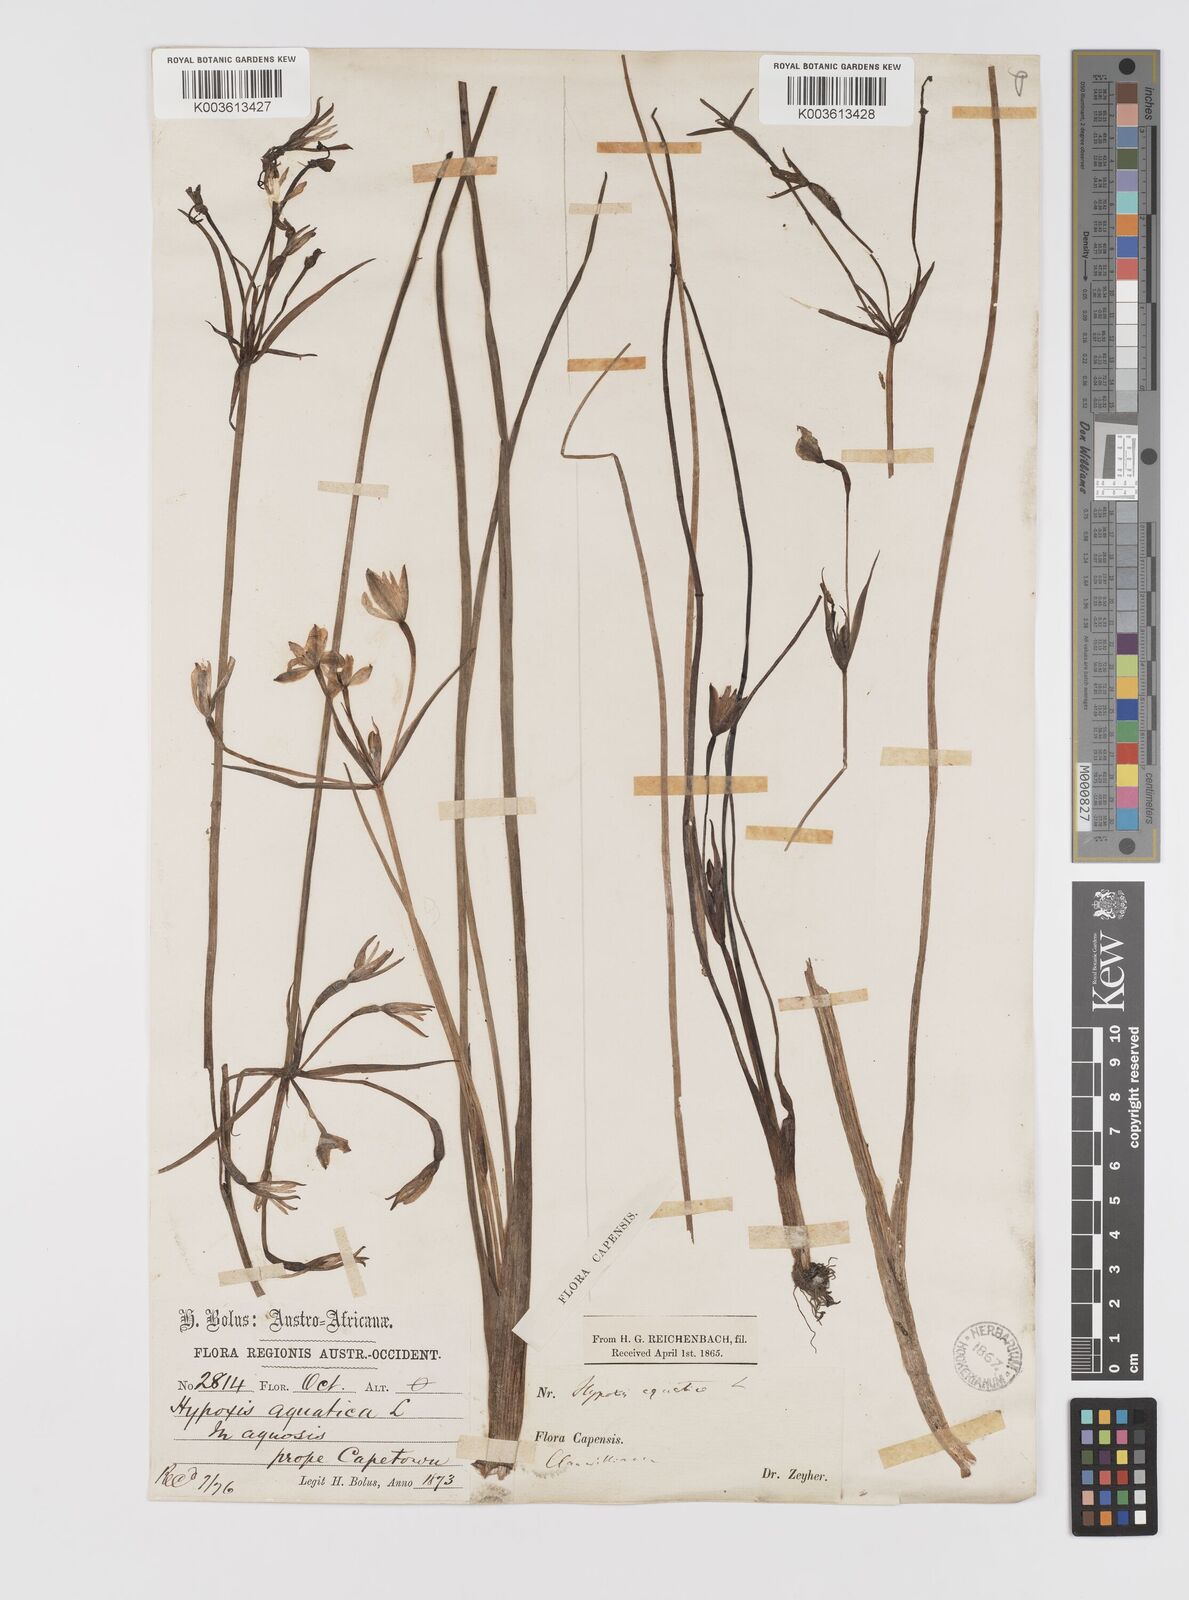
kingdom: Plantae
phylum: Tracheophyta
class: Liliopsida
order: Asparagales
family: Hypoxidaceae
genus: Pauridia
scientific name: Pauridia aquatica
